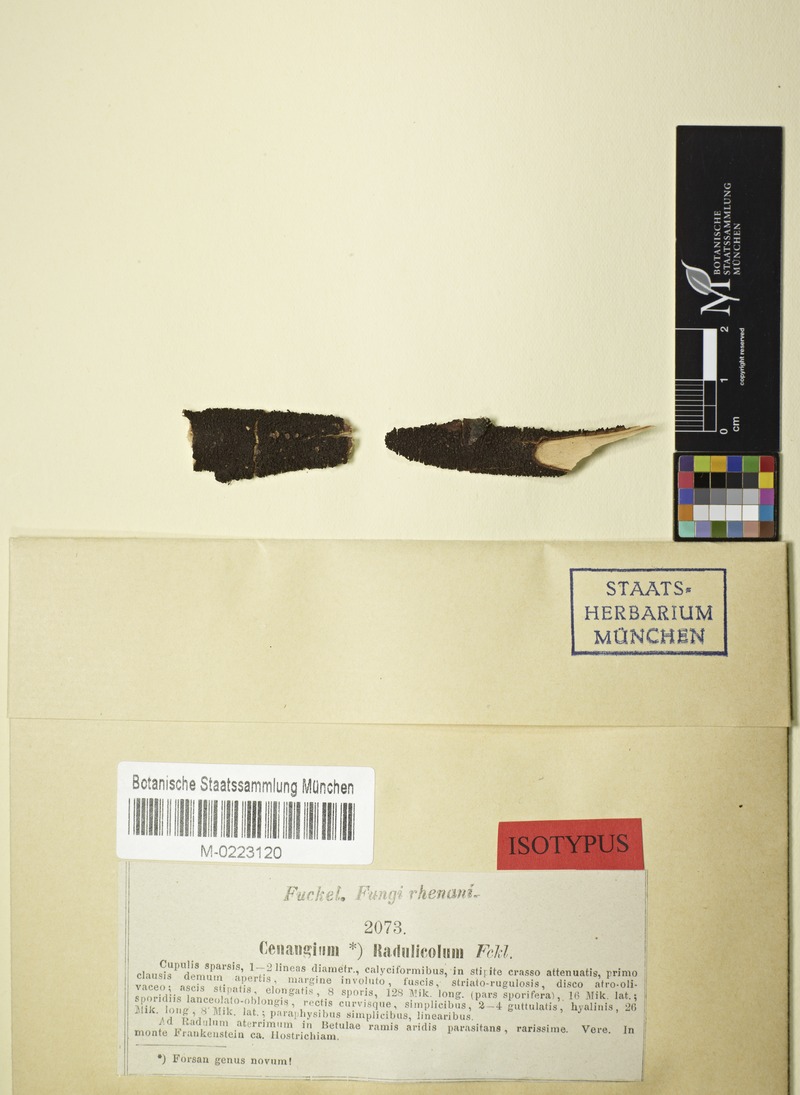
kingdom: Fungi
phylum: Ascomycota
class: Leotiomycetes
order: Helotiales
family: Godroniaceae
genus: Godronia
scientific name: Godronia radulicola
